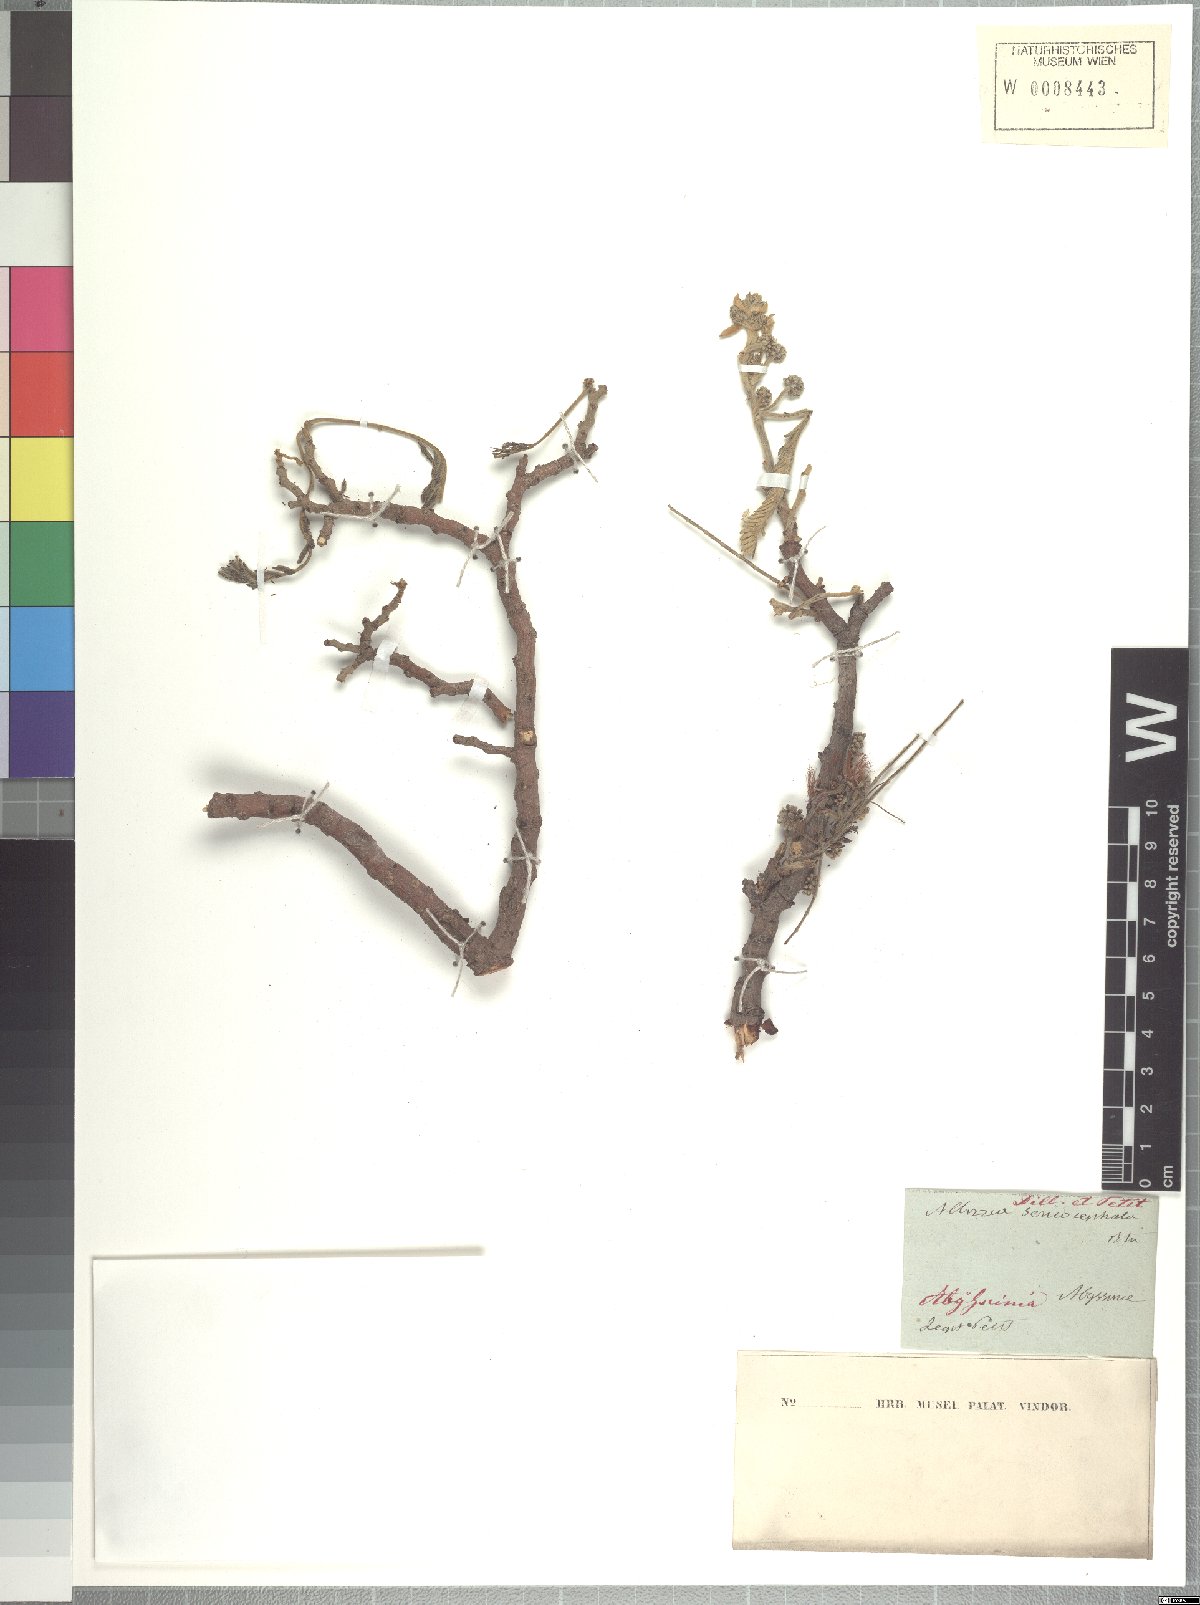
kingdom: Plantae
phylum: Tracheophyta
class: Magnoliopsida
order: Fabales
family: Fabaceae
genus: Albizia
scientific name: Albizia amara
